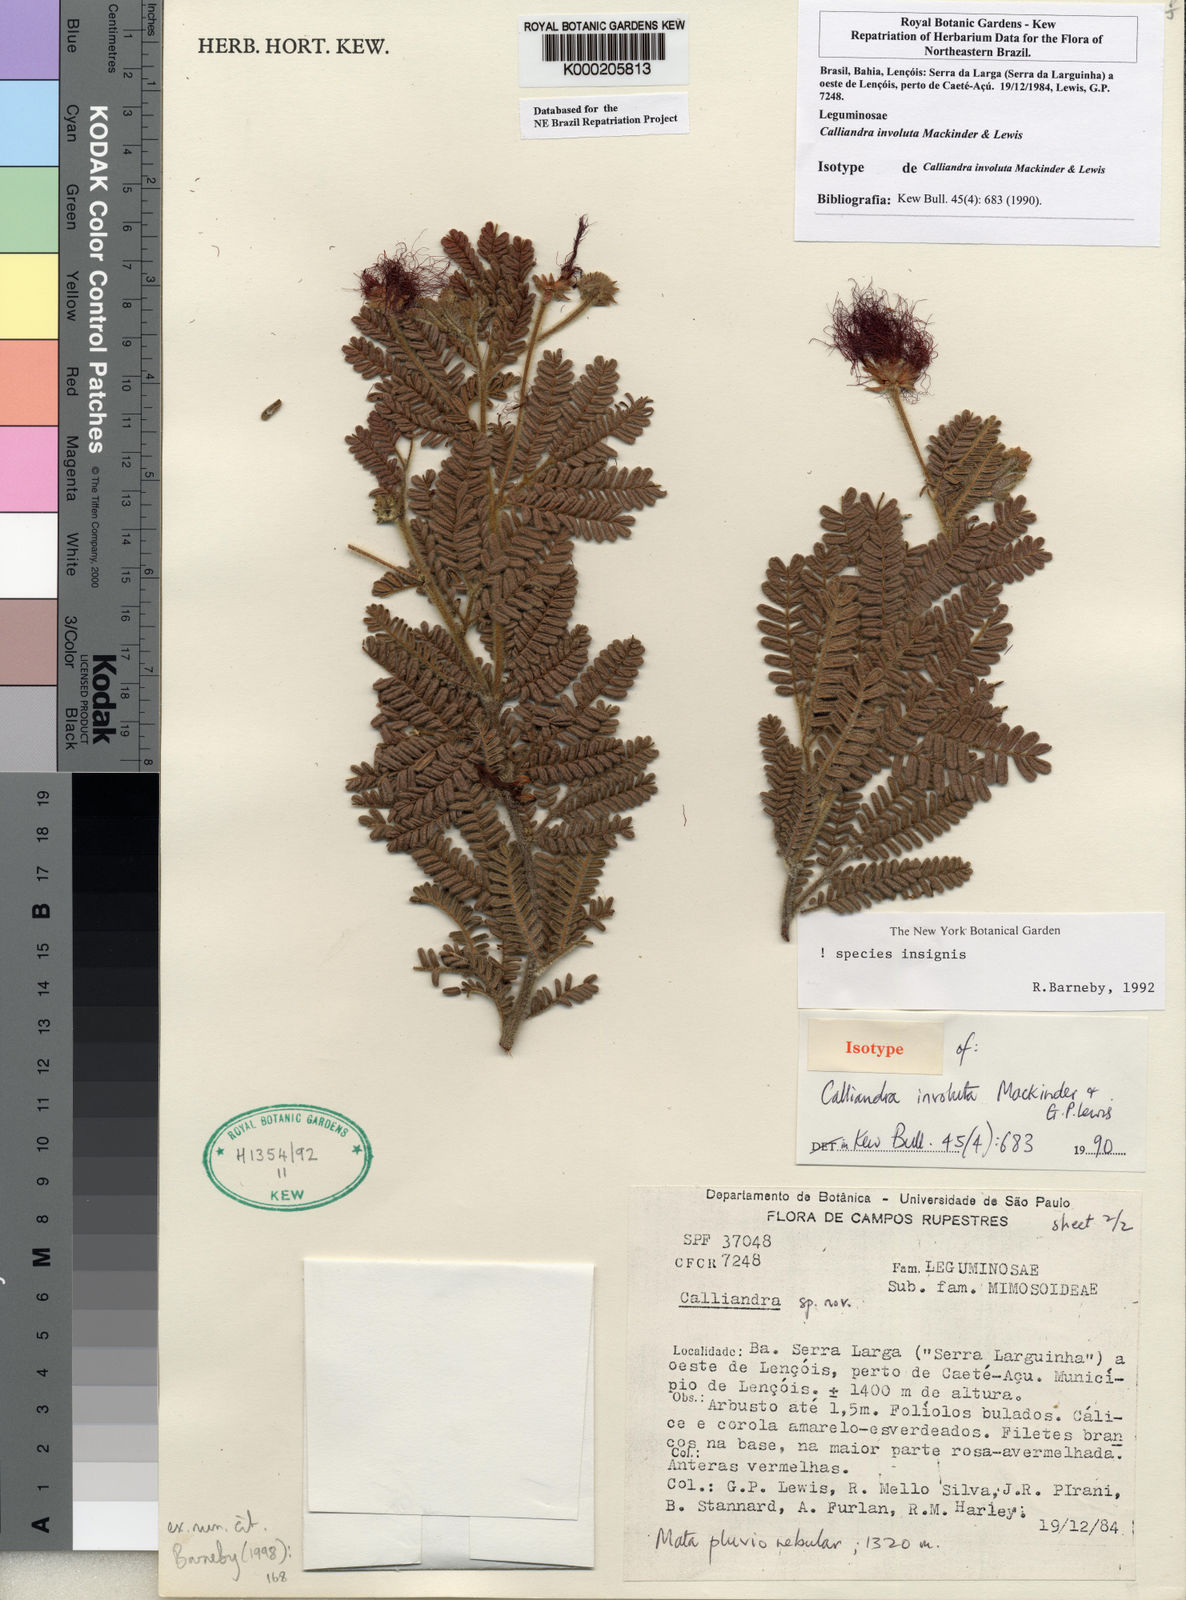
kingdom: Plantae
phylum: Tracheophyta
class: Magnoliopsida
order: Fabales
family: Fabaceae
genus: Calliandra
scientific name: Calliandra involuta
